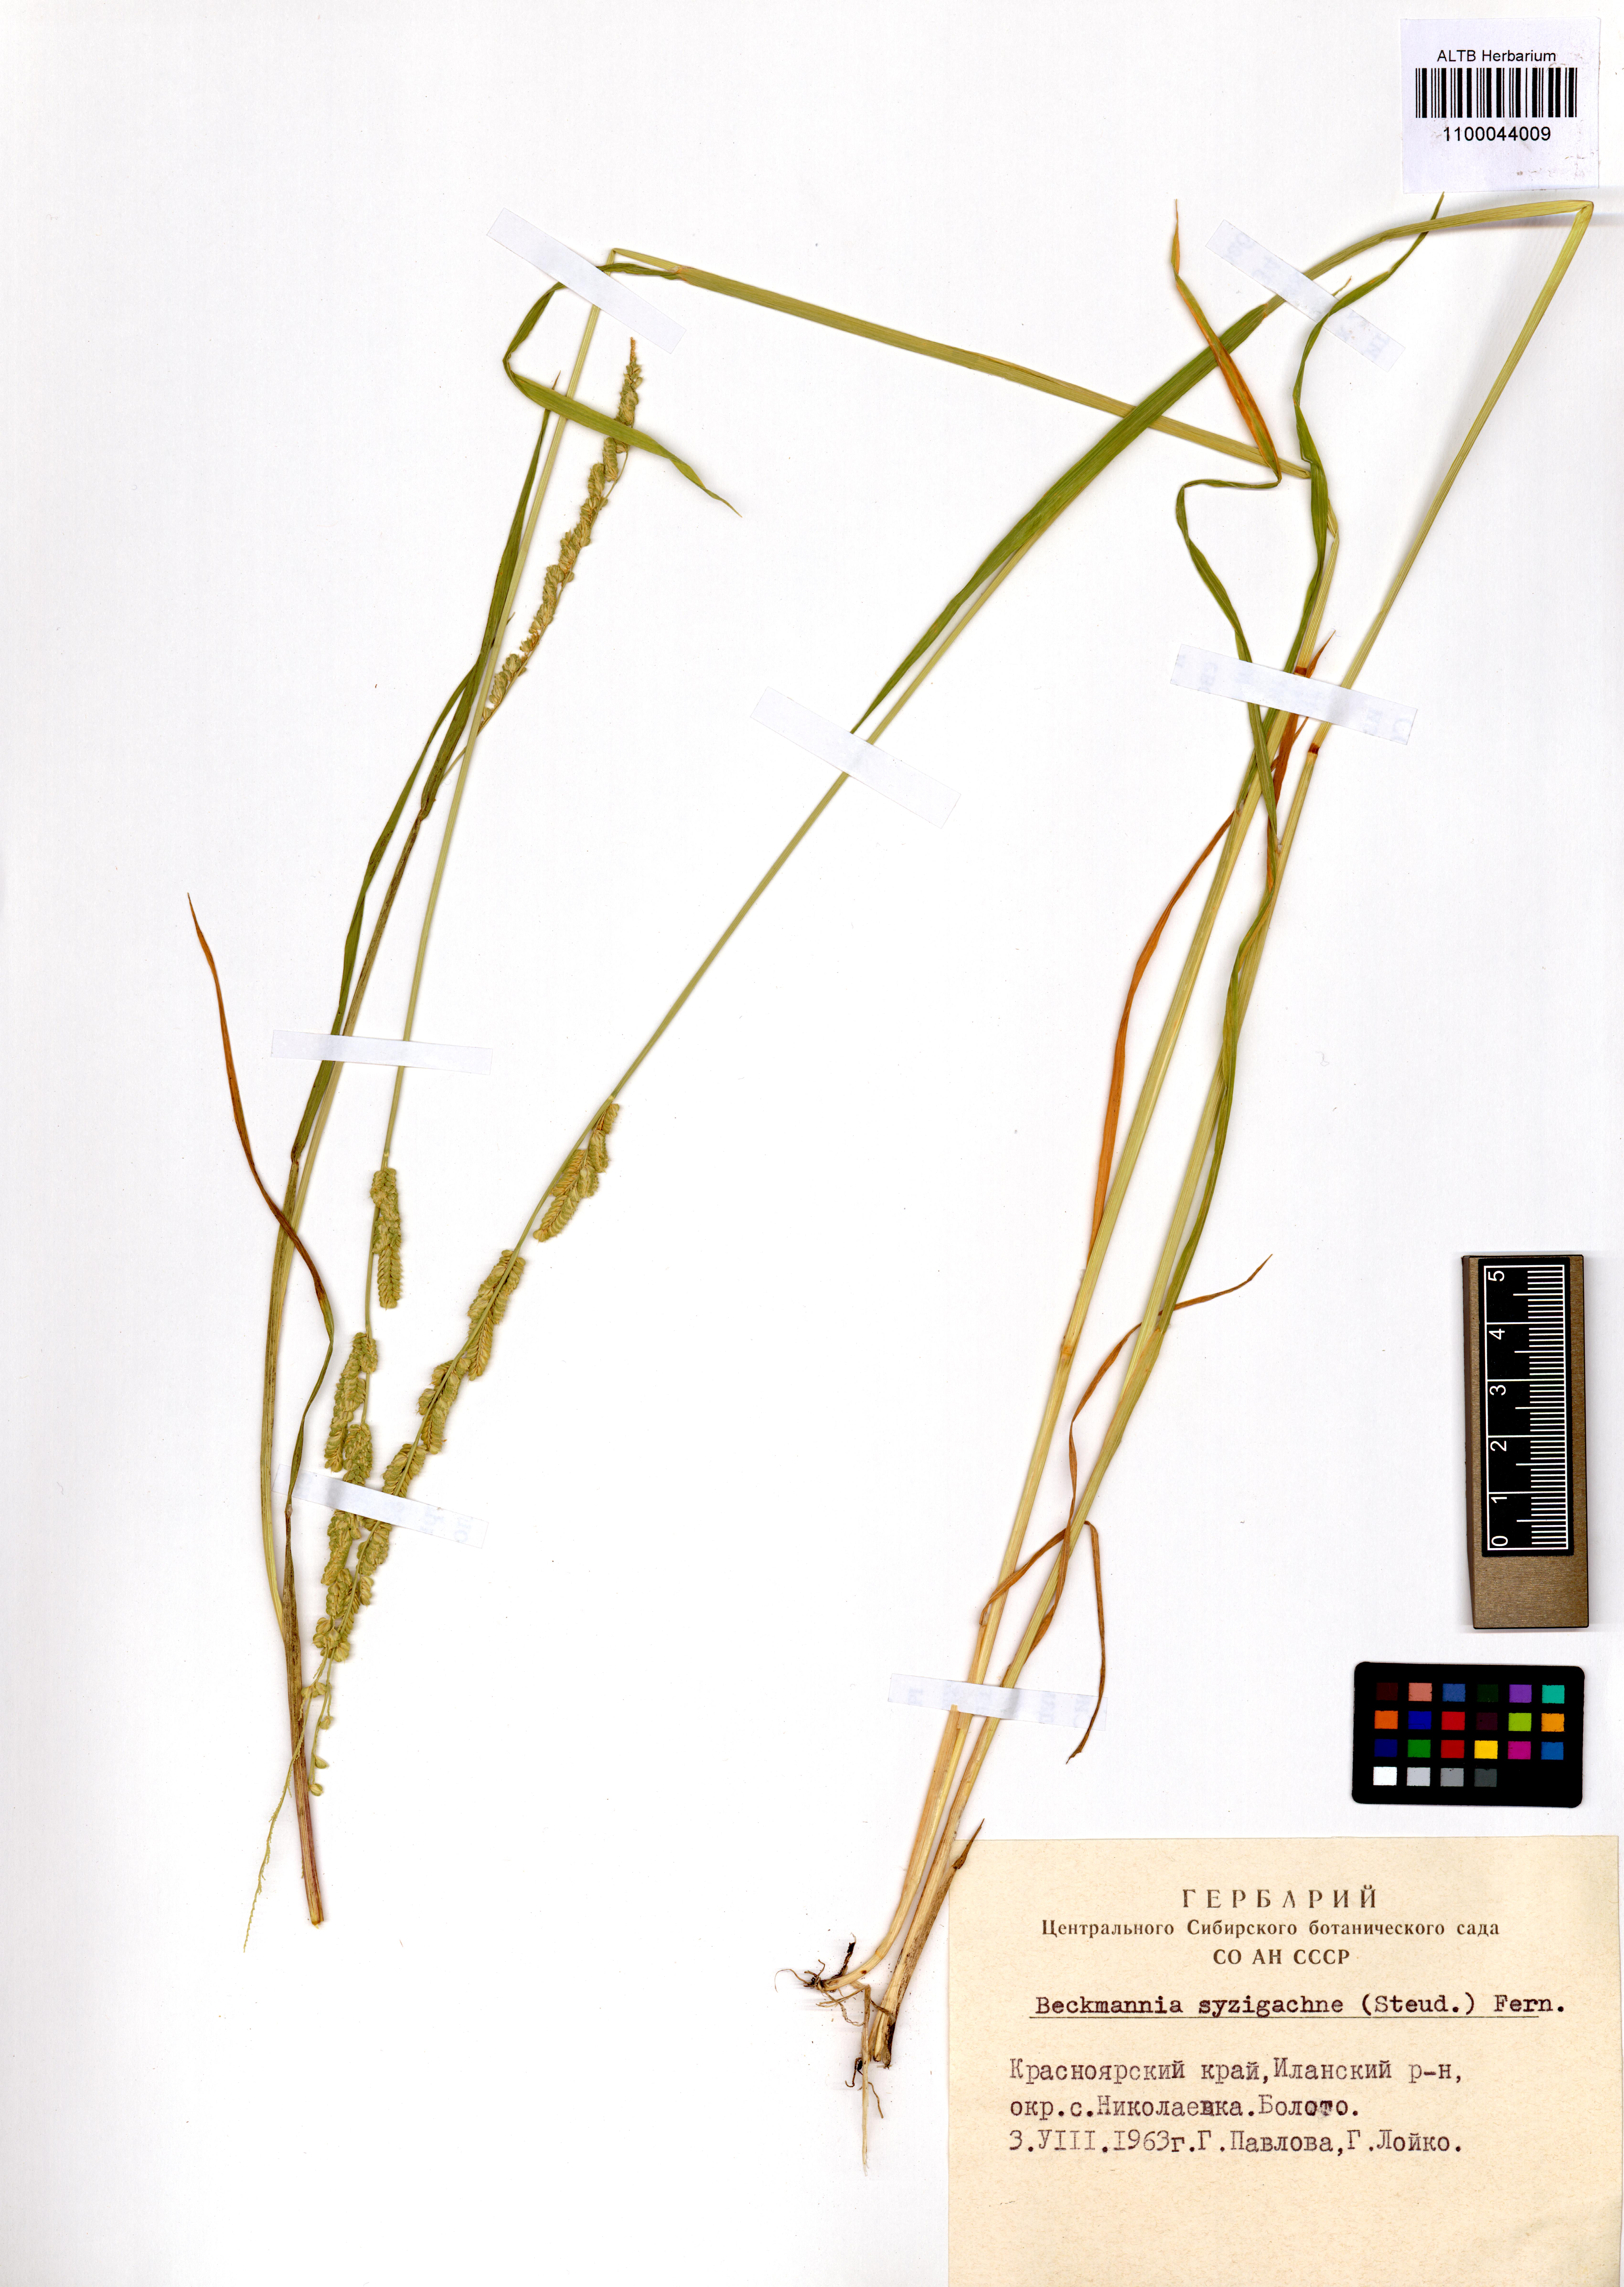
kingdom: Plantae
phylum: Tracheophyta
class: Liliopsida
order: Poales
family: Poaceae
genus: Beckmannia
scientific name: Beckmannia syzigachne
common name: American slough-grass
